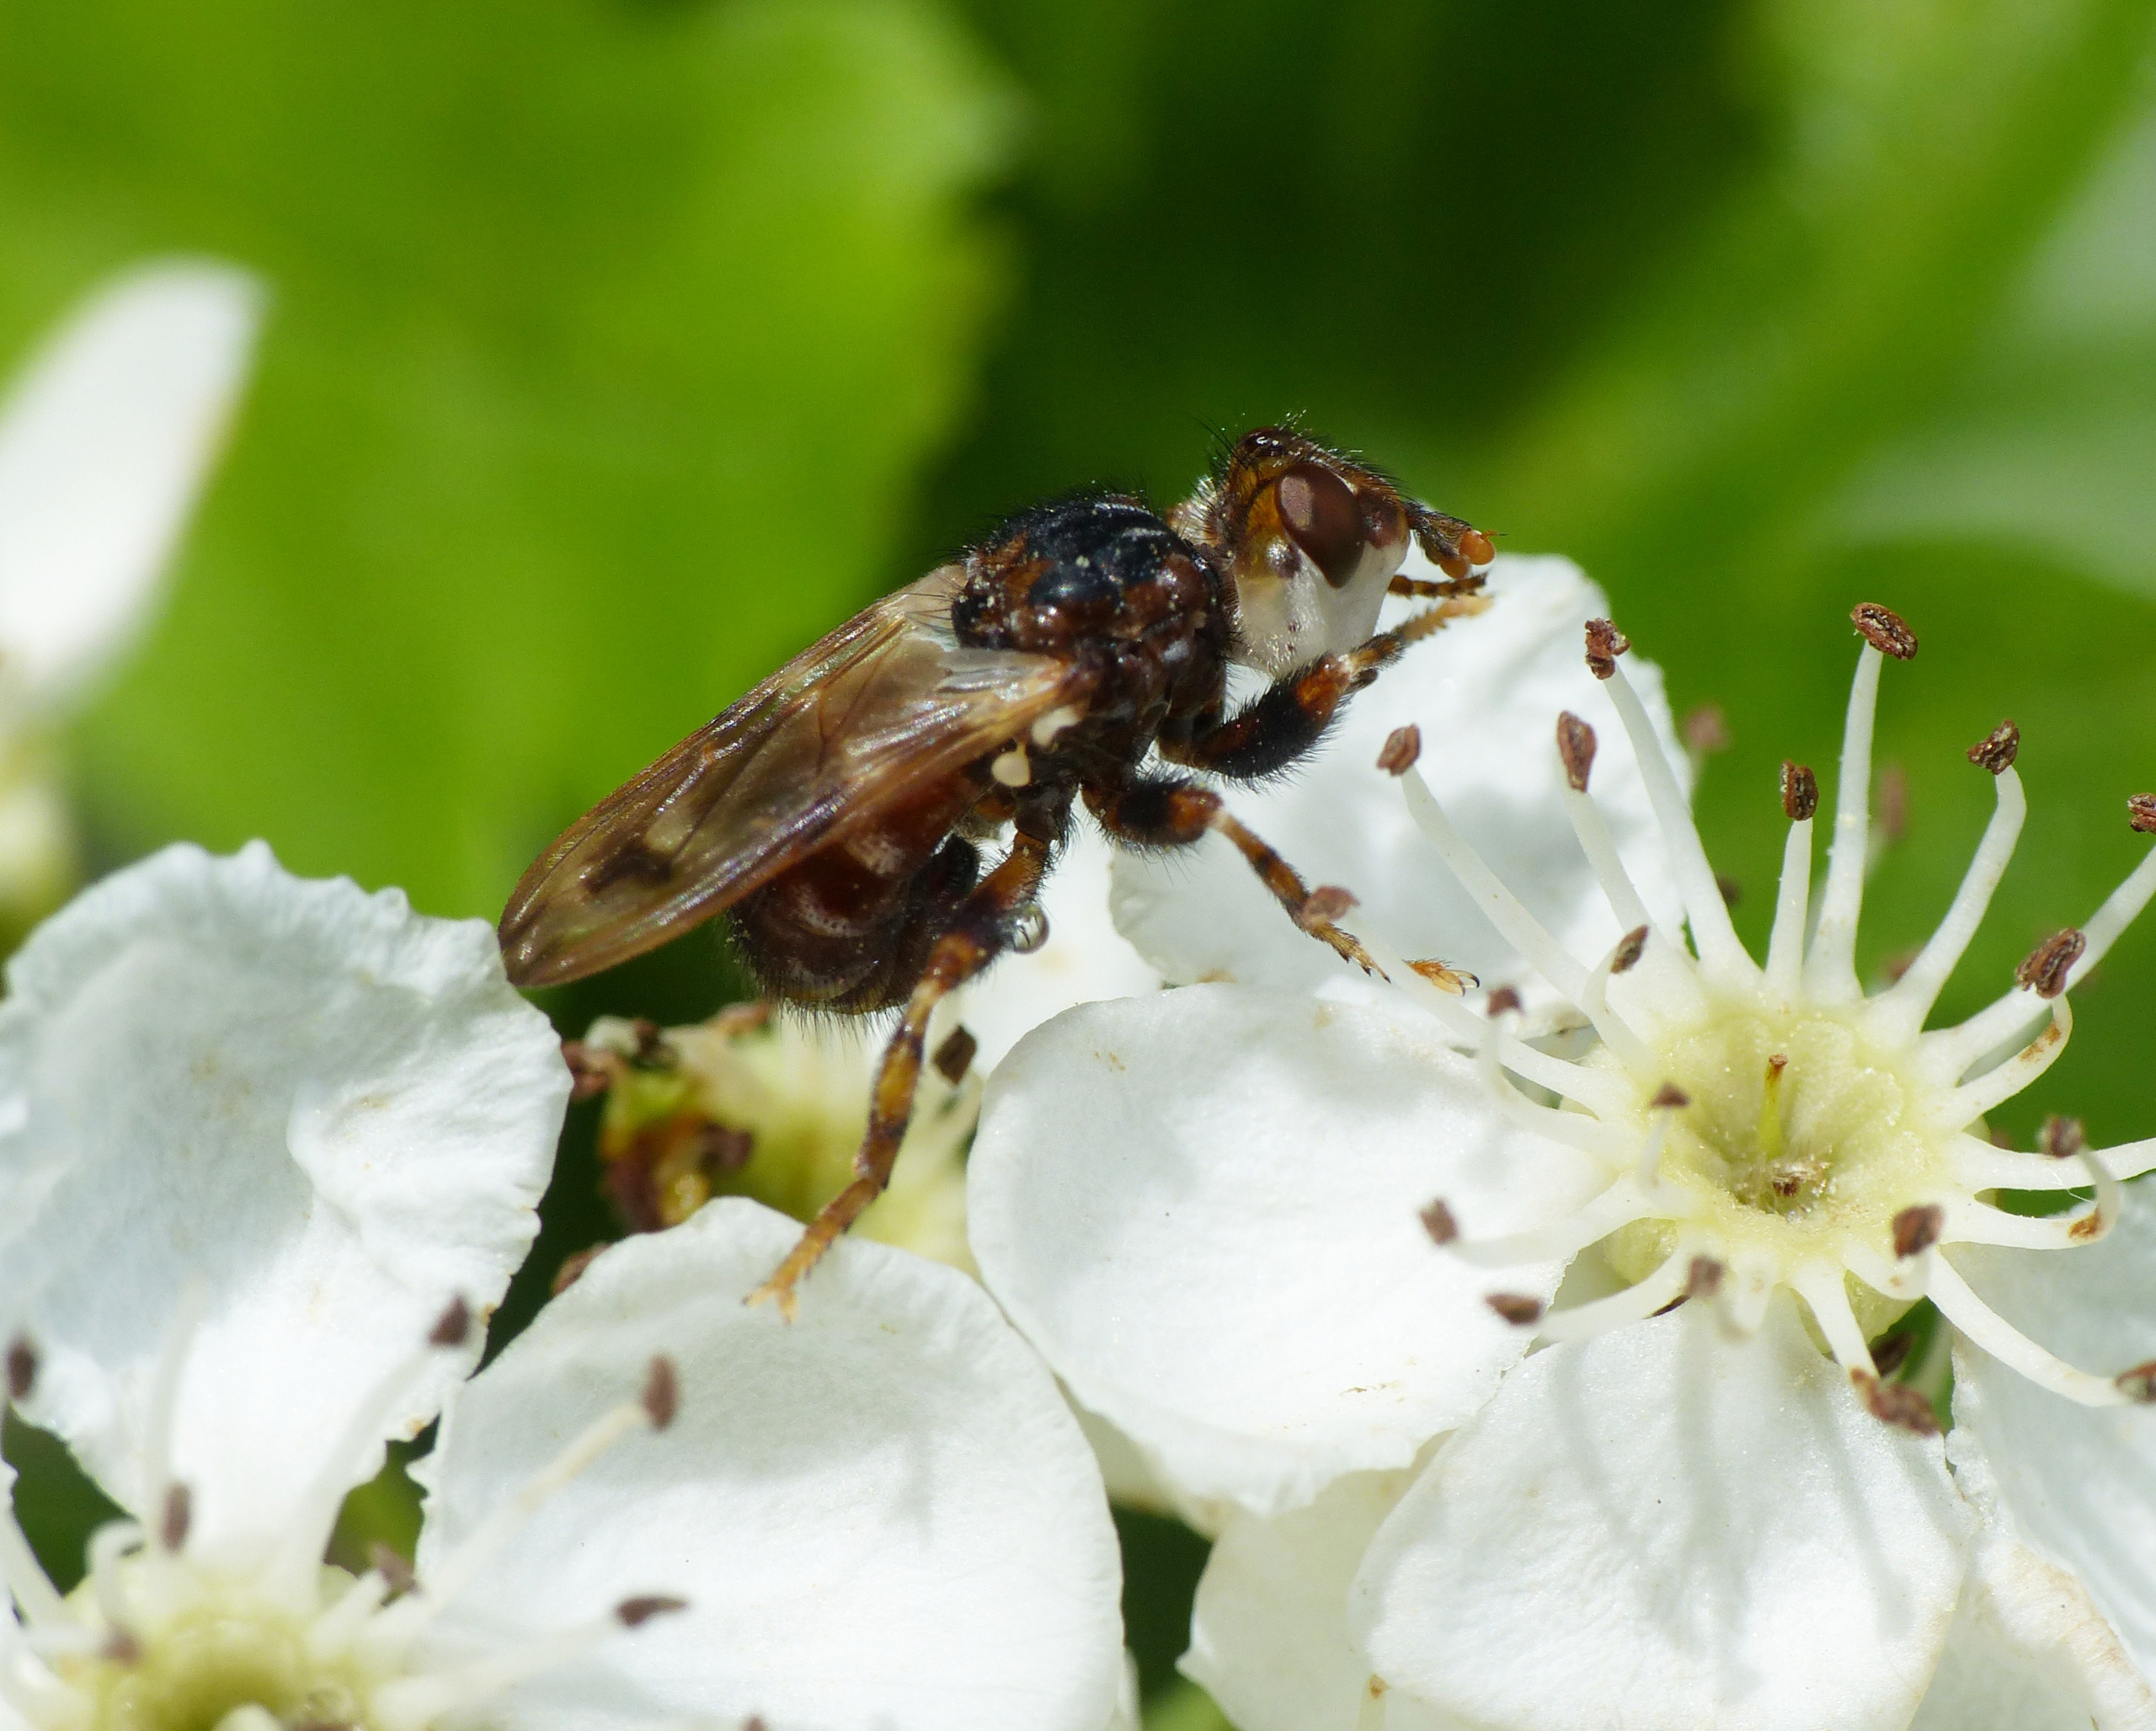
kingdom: Animalia
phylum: Arthropoda
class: Insecta
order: Diptera
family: Conopidae
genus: Myopa
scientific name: Myopa buccata
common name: Brun hvepseflue
